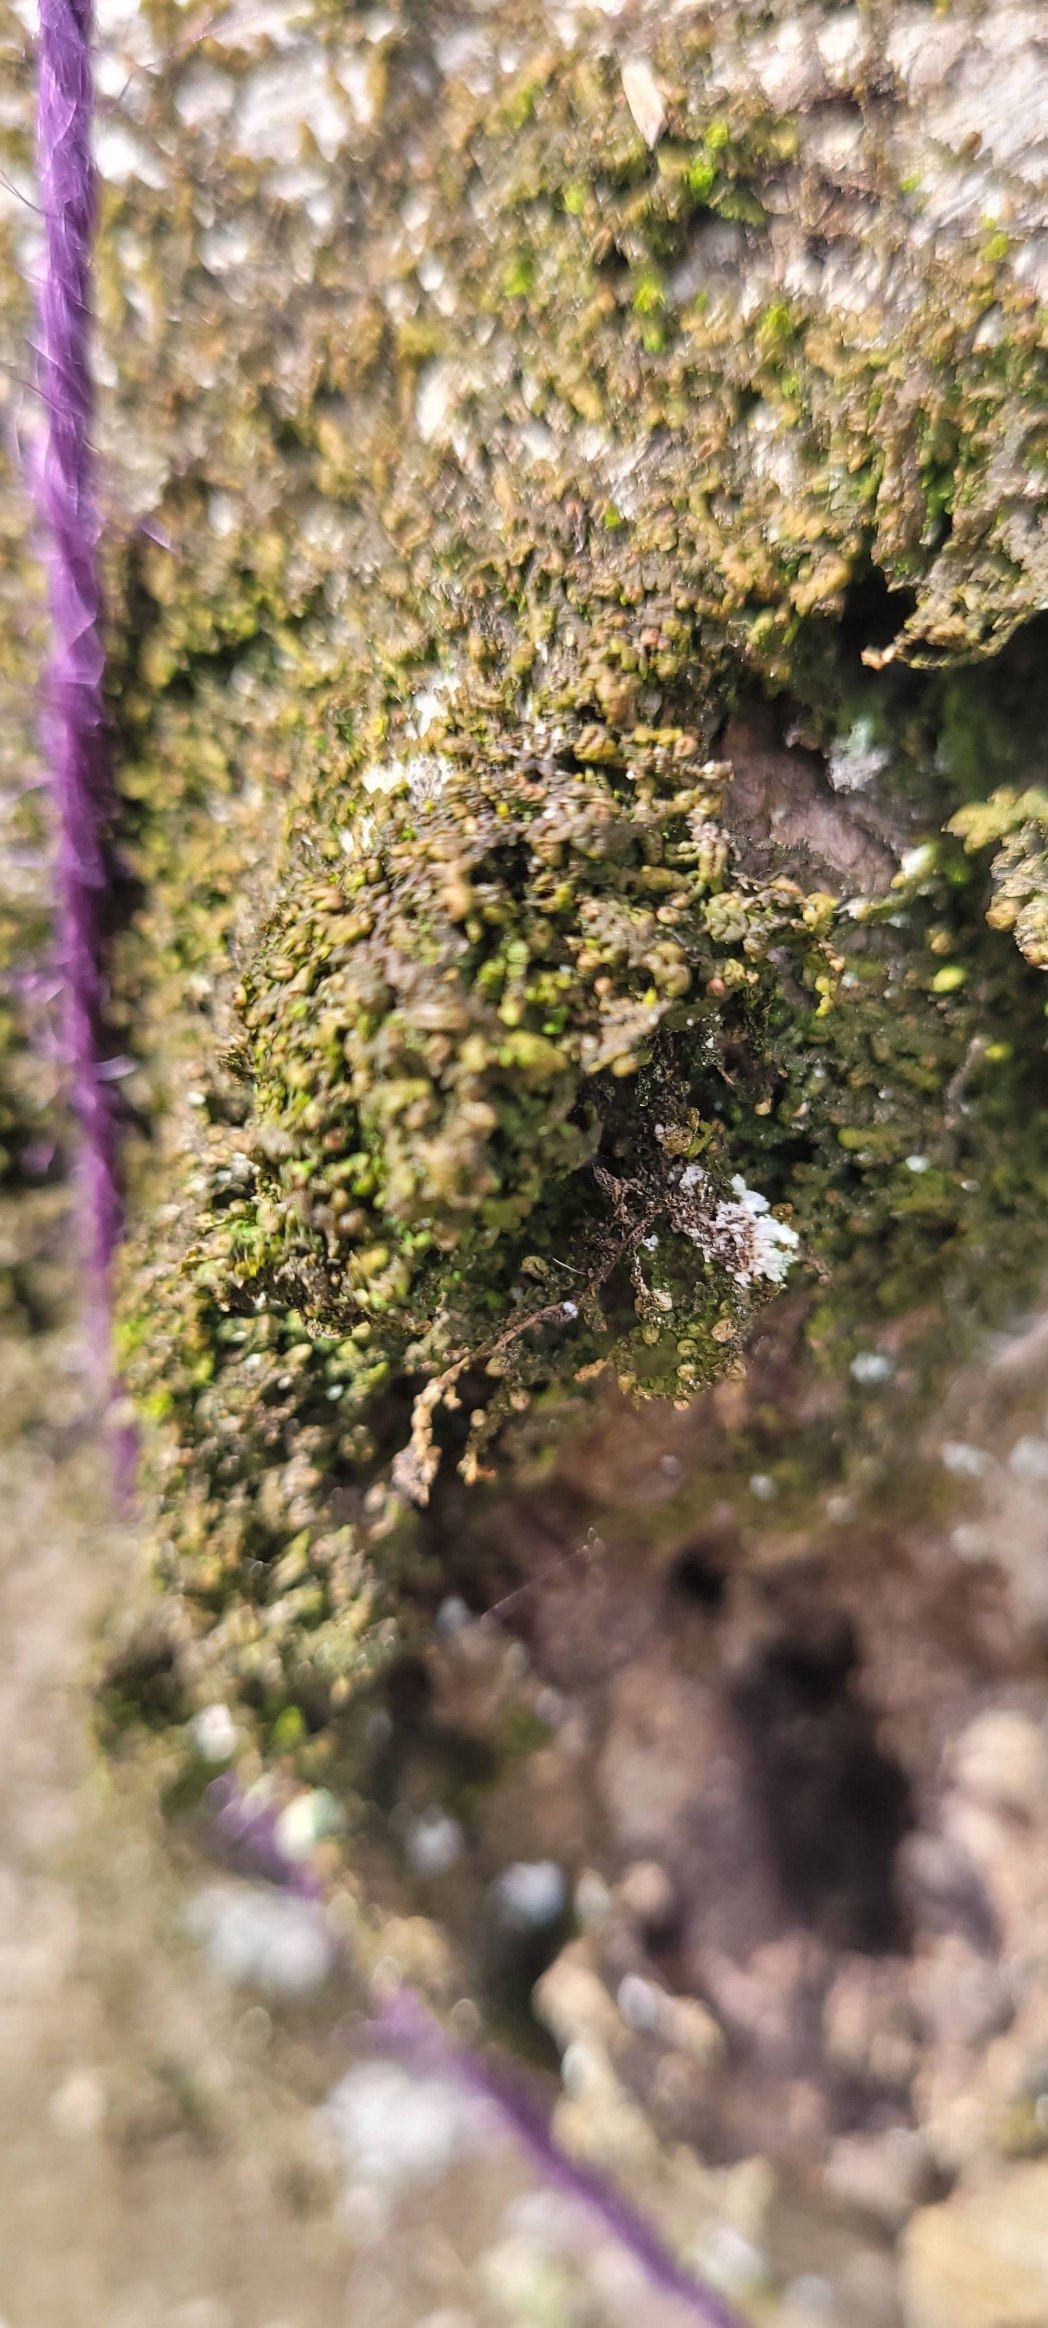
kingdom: Plantae
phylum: Marchantiophyta
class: Jungermanniopsida
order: Porellales
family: Frullaniaceae
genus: Frullania
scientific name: Frullania
